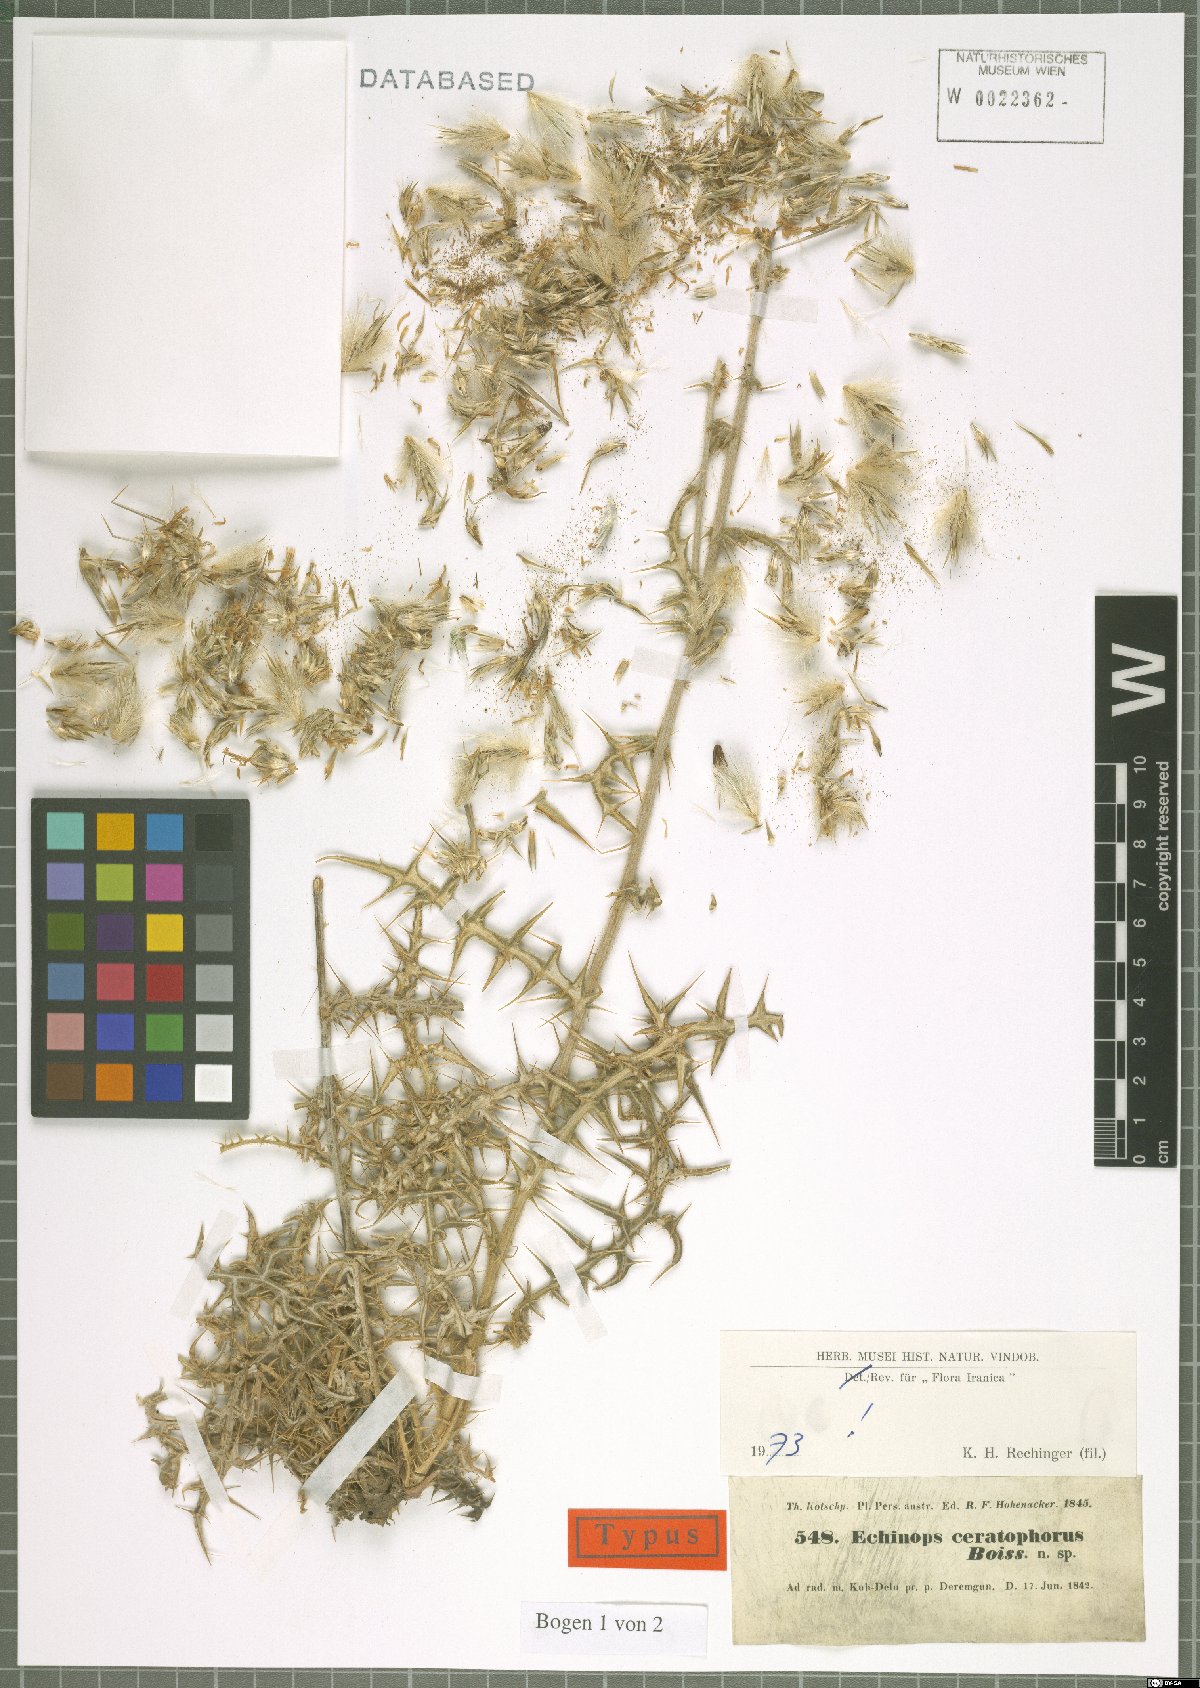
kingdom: Plantae
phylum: Tracheophyta
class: Magnoliopsida
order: Asterales
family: Asteraceae
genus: Echinops
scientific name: Echinops ceratophorus
